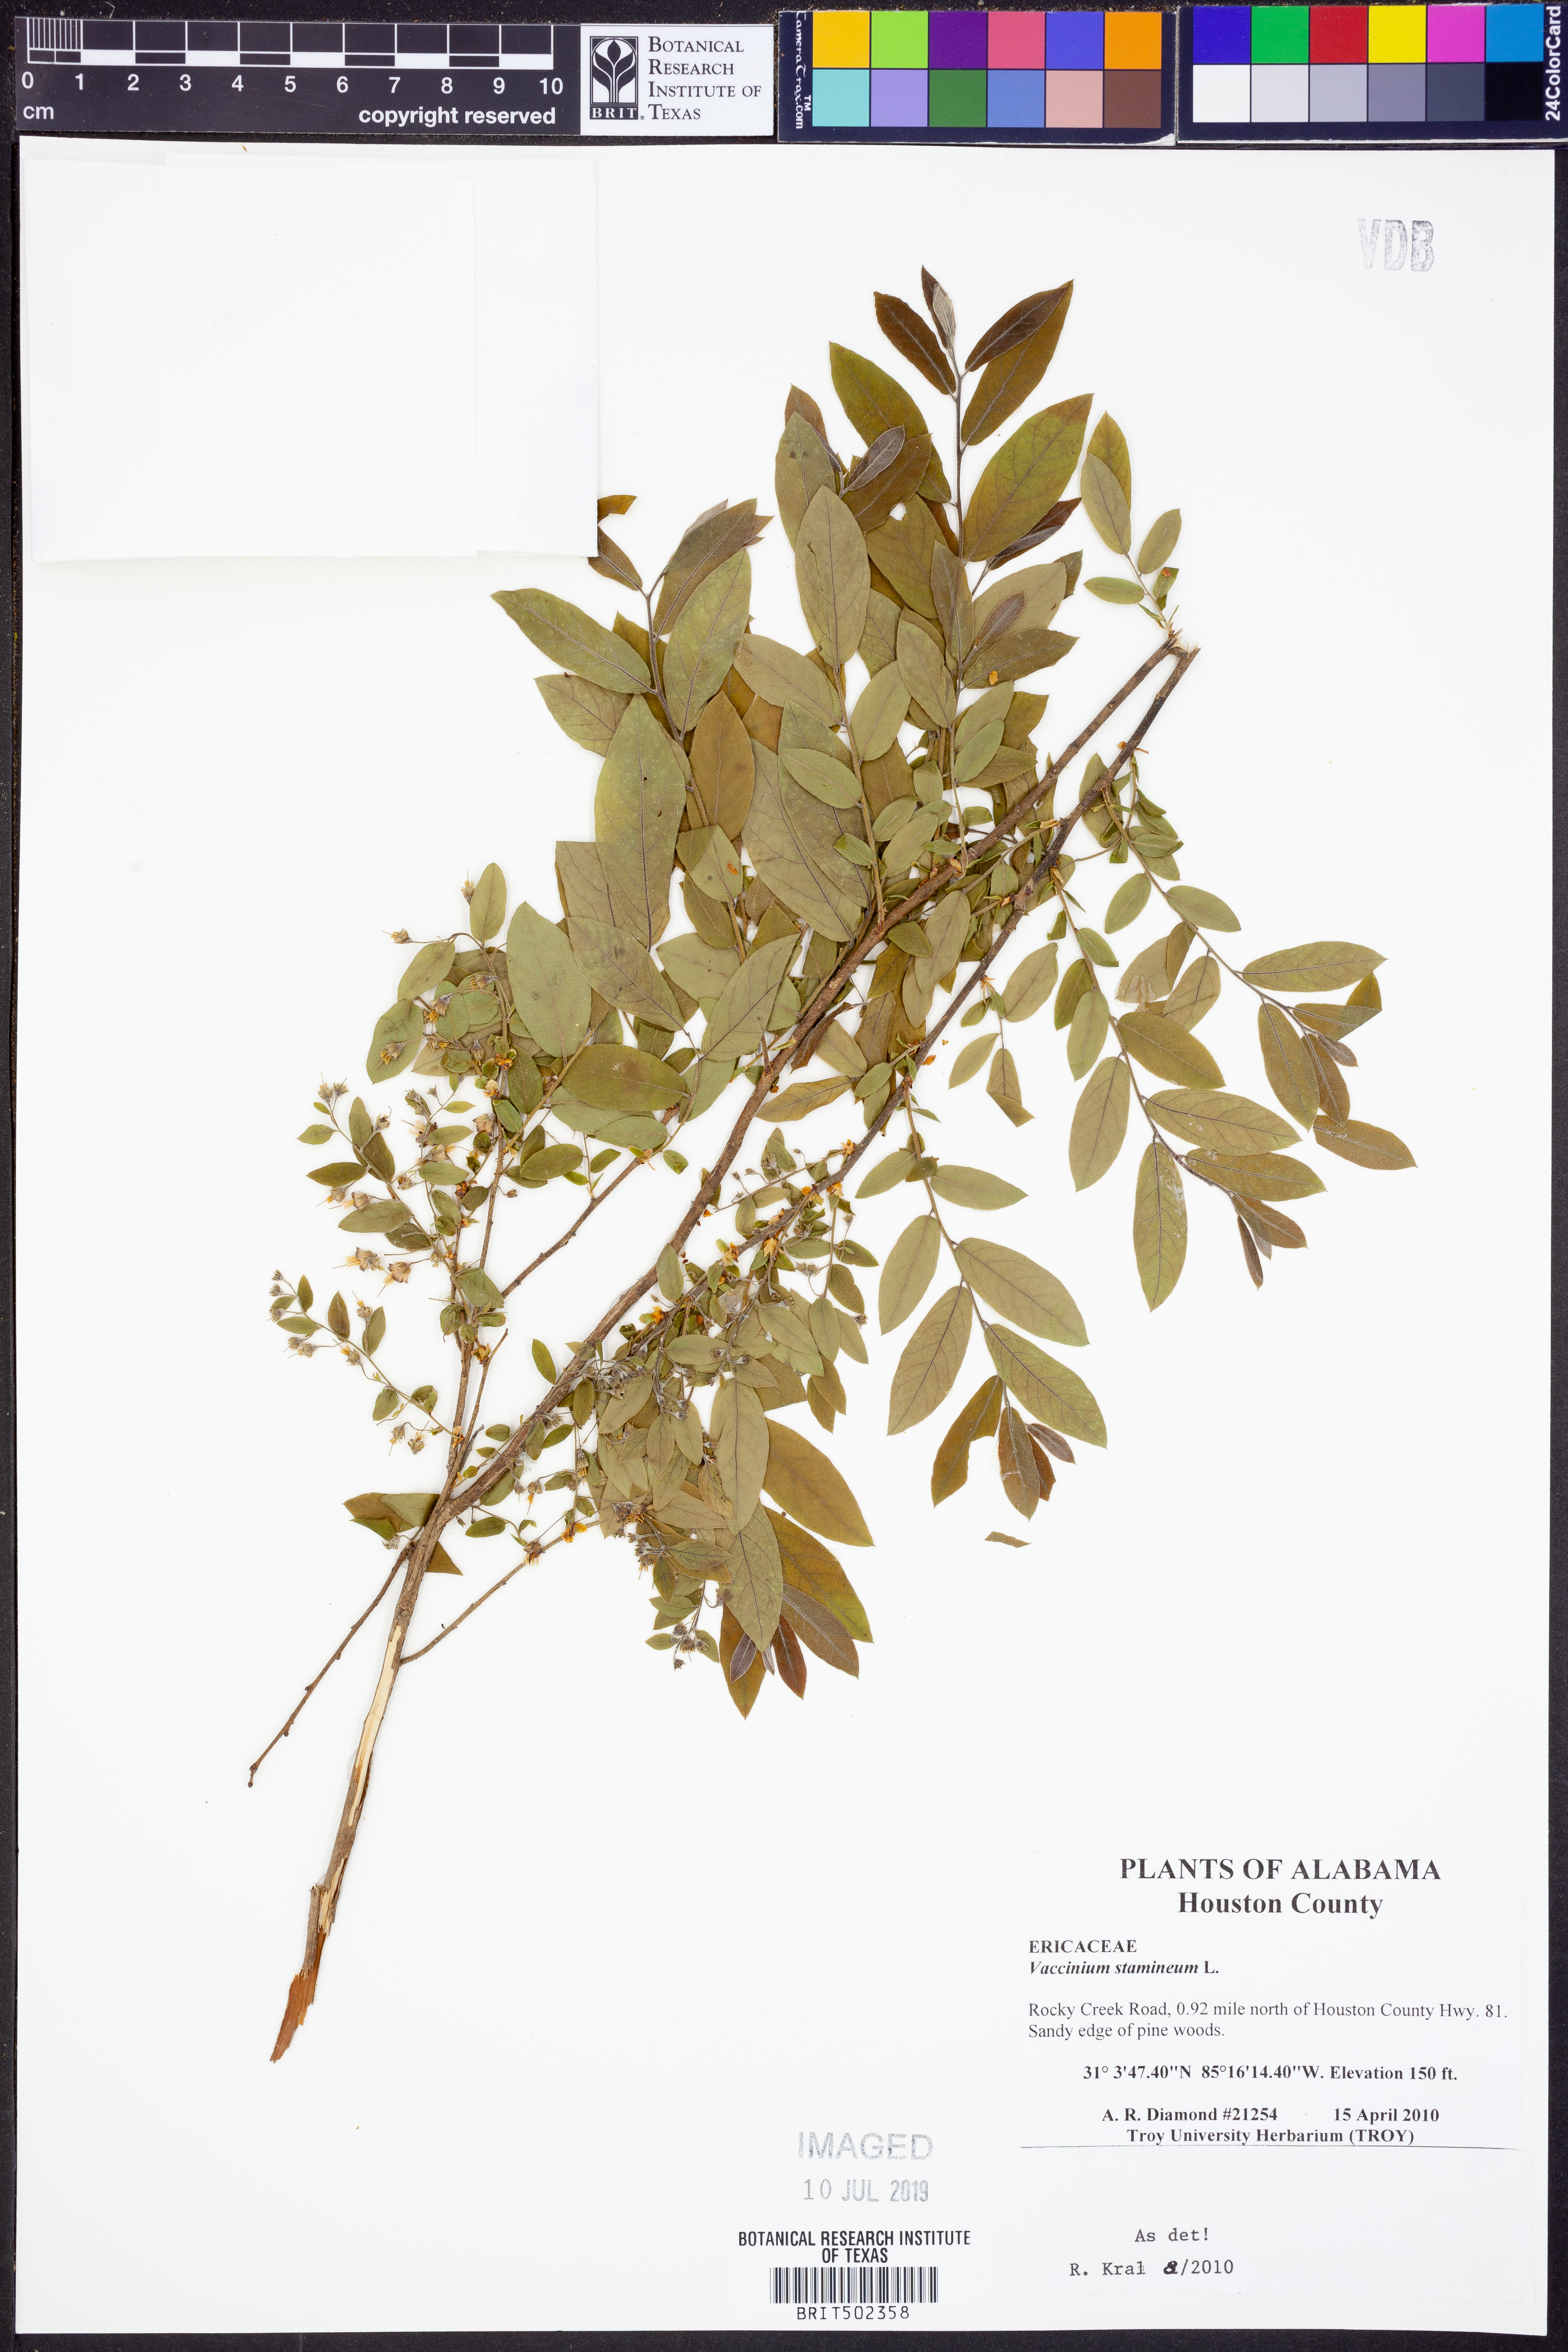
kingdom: Plantae
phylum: Tracheophyta
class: Magnoliopsida
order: Ericales
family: Ericaceae
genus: Vaccinium
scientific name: Vaccinium stamineum
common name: Deerberry
